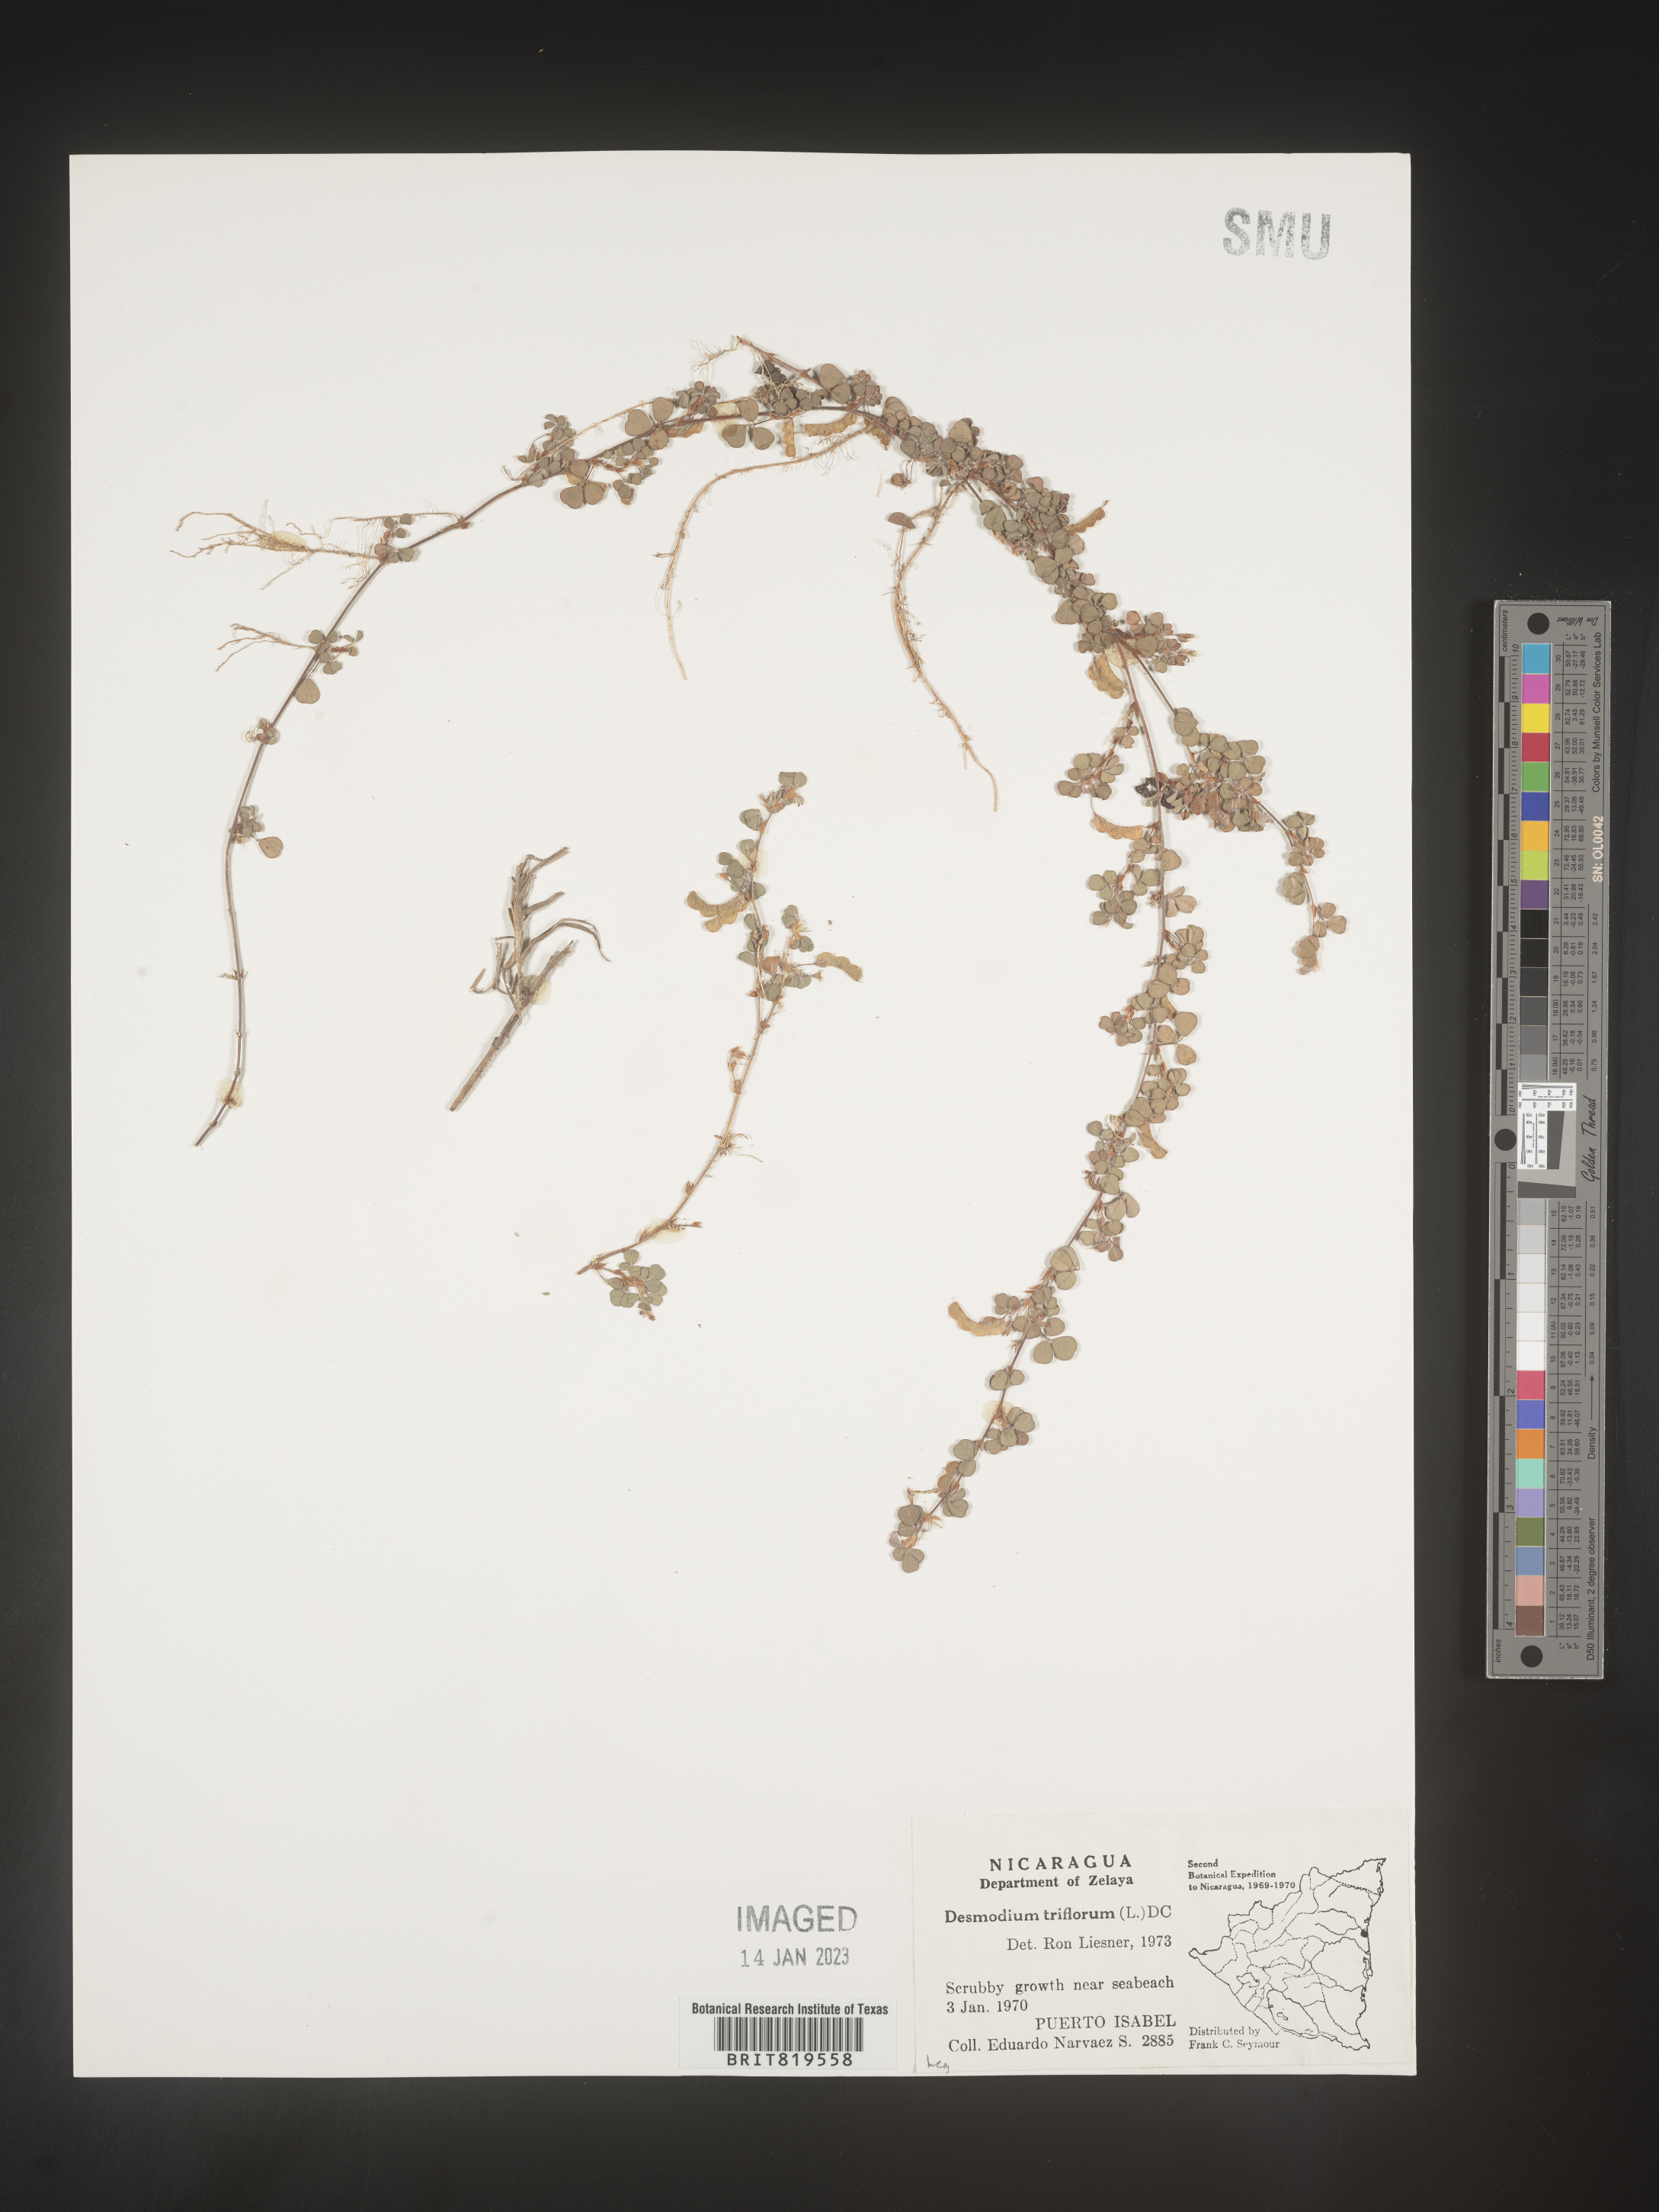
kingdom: Plantae
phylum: Tracheophyta
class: Magnoliopsida
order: Fabales
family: Fabaceae
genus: Desmodium
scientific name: Desmodium
